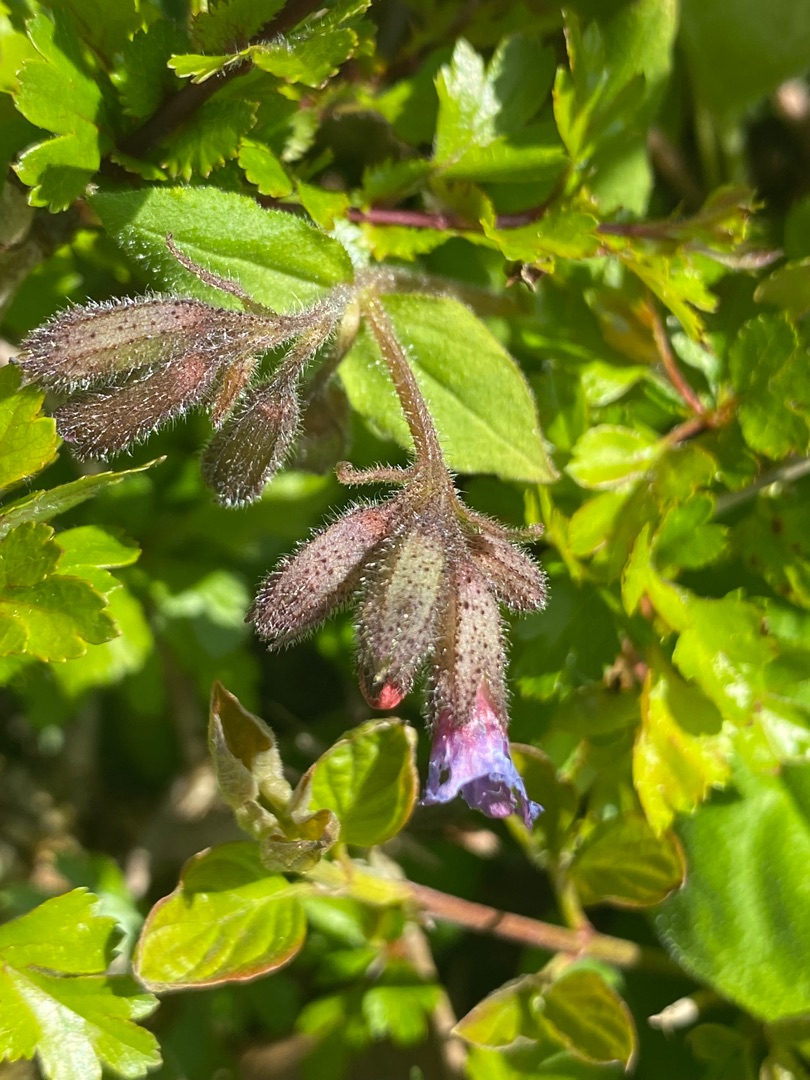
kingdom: Plantae
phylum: Tracheophyta
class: Magnoliopsida
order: Boraginales
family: Boraginaceae
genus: Pulmonaria
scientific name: Pulmonaria obscura
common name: Almindelig lungeurt
